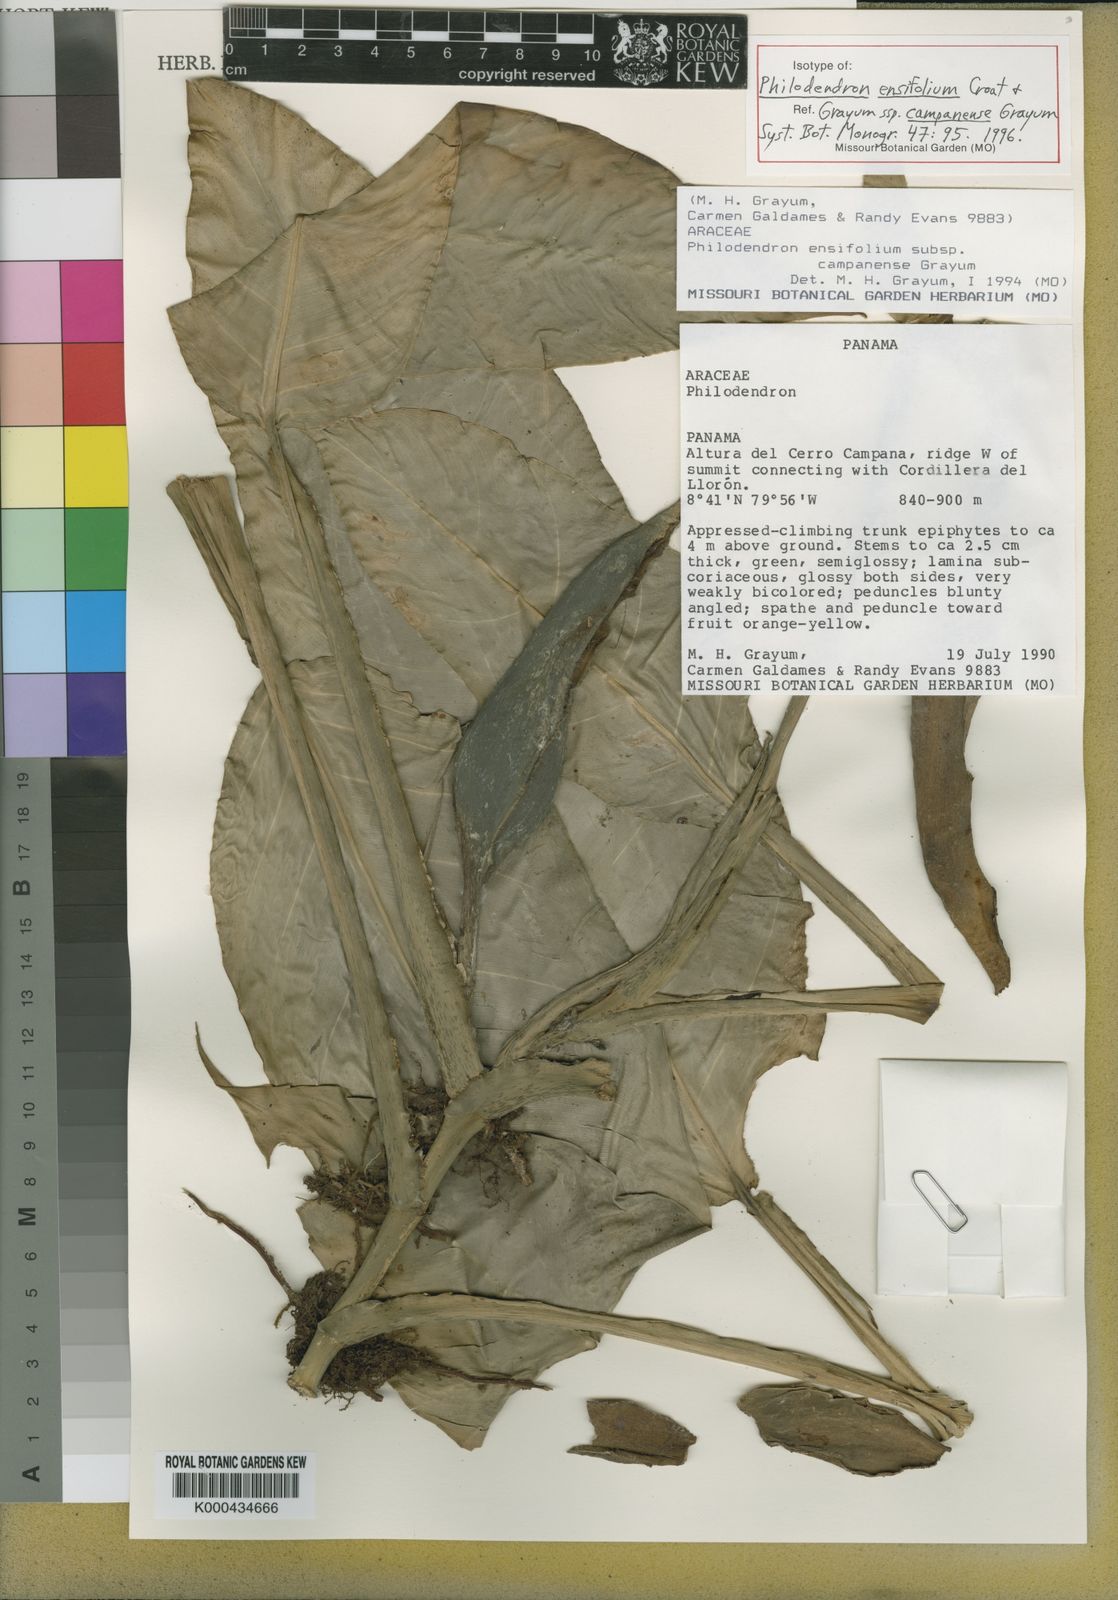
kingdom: Plantae
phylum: Tracheophyta
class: Liliopsida
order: Alismatales
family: Araceae
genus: Philodendron
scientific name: Philodendron ensifolium
